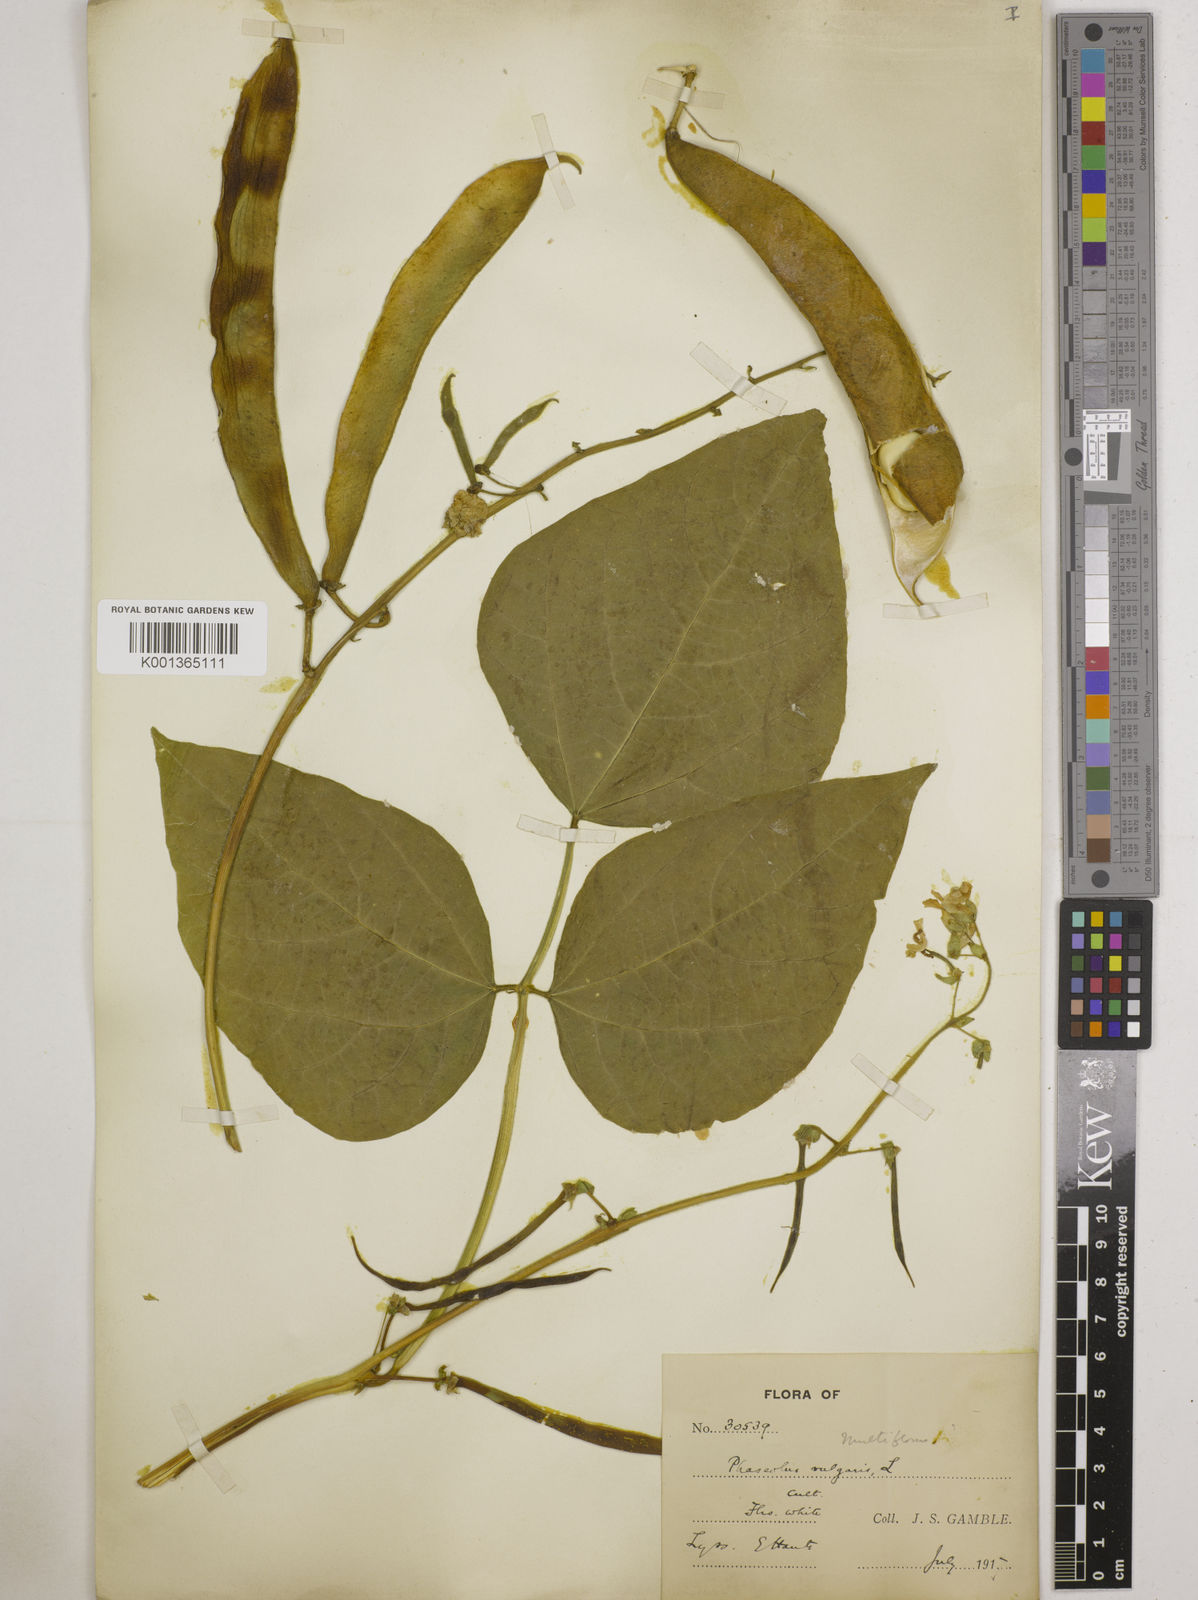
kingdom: Plantae
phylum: Tracheophyta
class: Magnoliopsida
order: Fabales
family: Fabaceae
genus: Phaseolus
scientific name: Phaseolus vulgaris
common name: Bean
